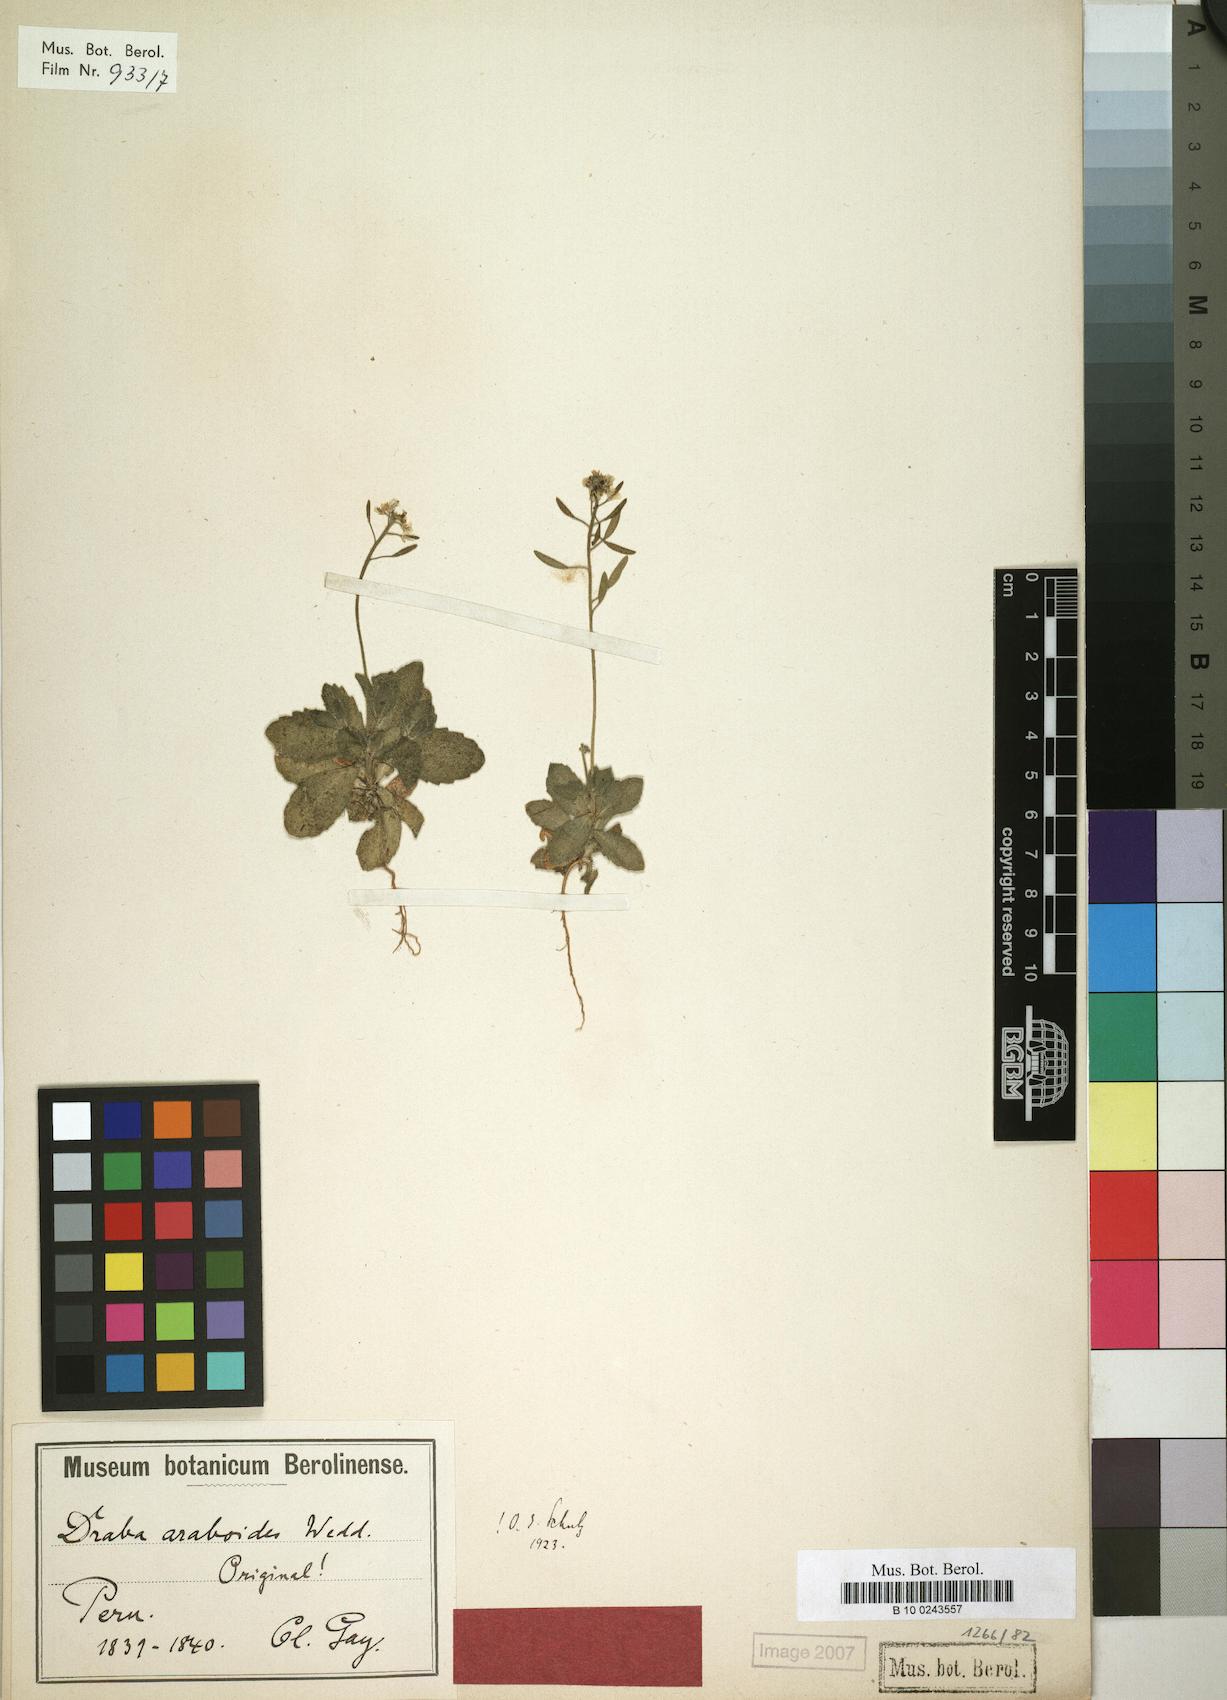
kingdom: Plantae
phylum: Tracheophyta
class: Magnoliopsida
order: Brassicales
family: Brassicaceae
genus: Tomostima
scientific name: Tomostima araboides
